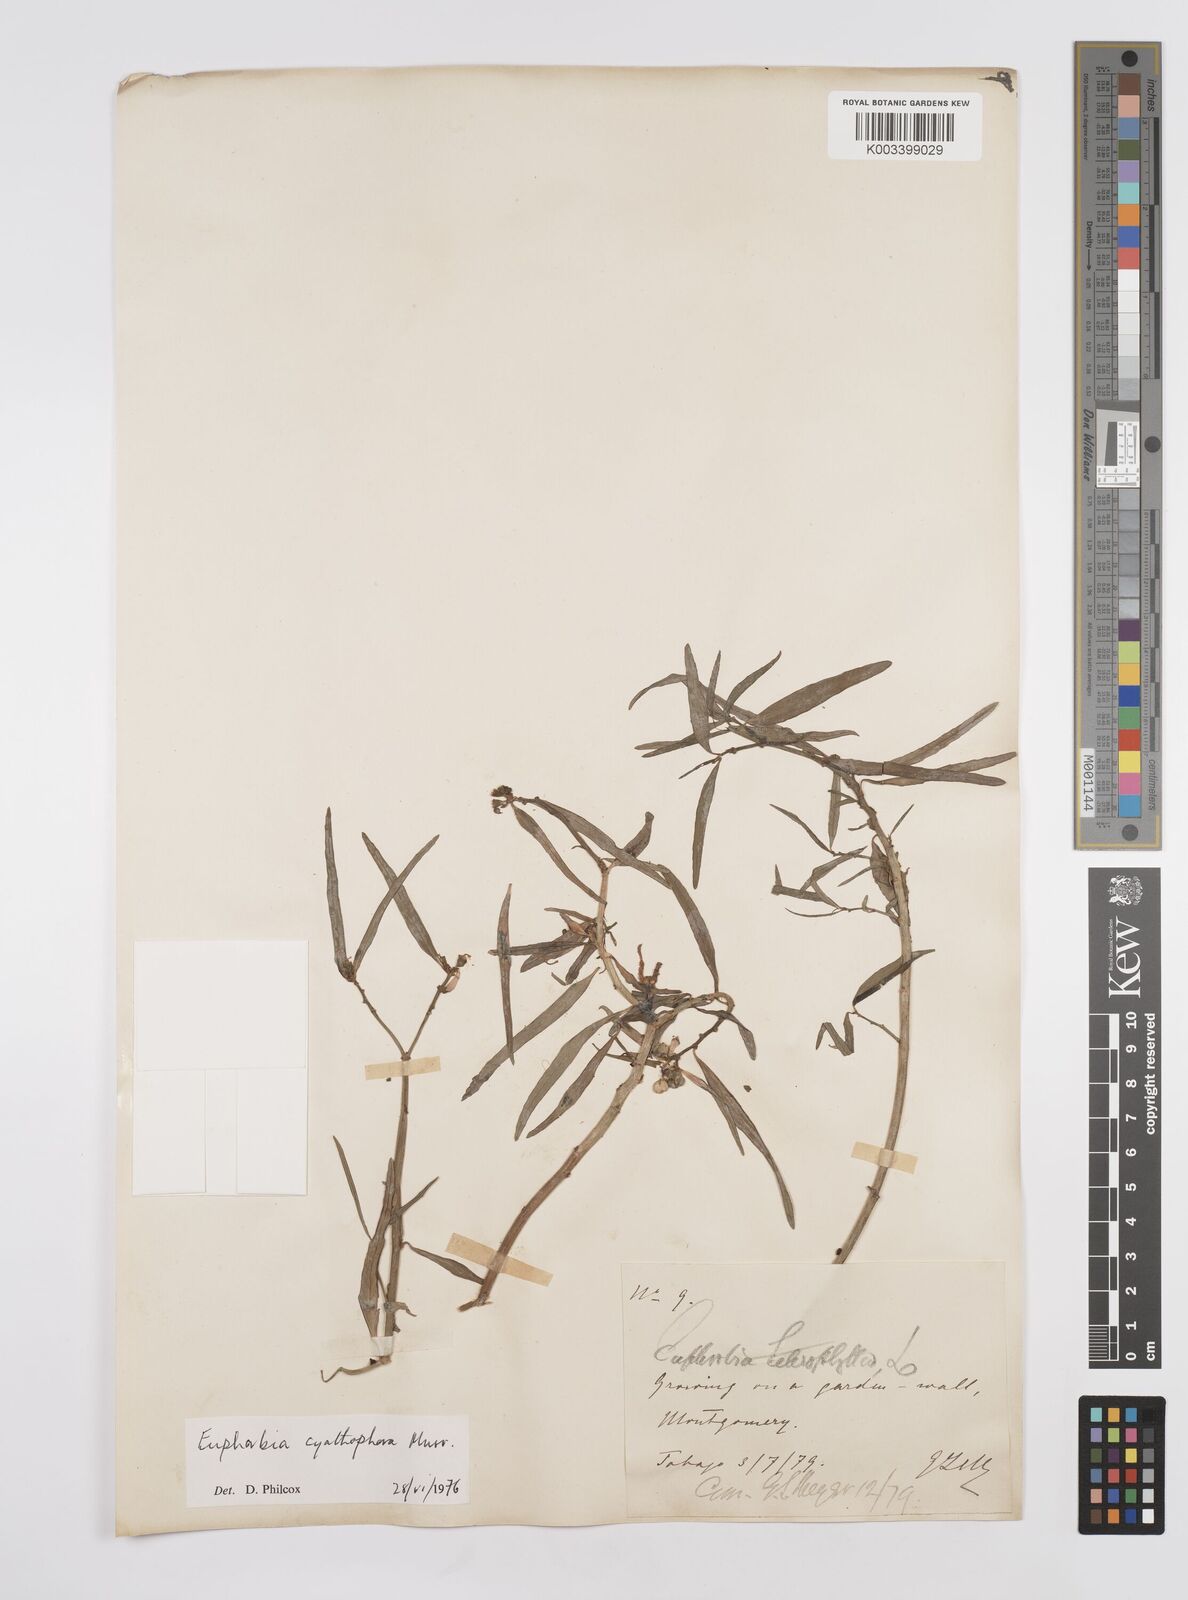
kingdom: Plantae
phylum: Tracheophyta
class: Magnoliopsida
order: Malpighiales
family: Euphorbiaceae
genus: Euphorbia
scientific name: Euphorbia heterophylla
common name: Mexican fireplant
